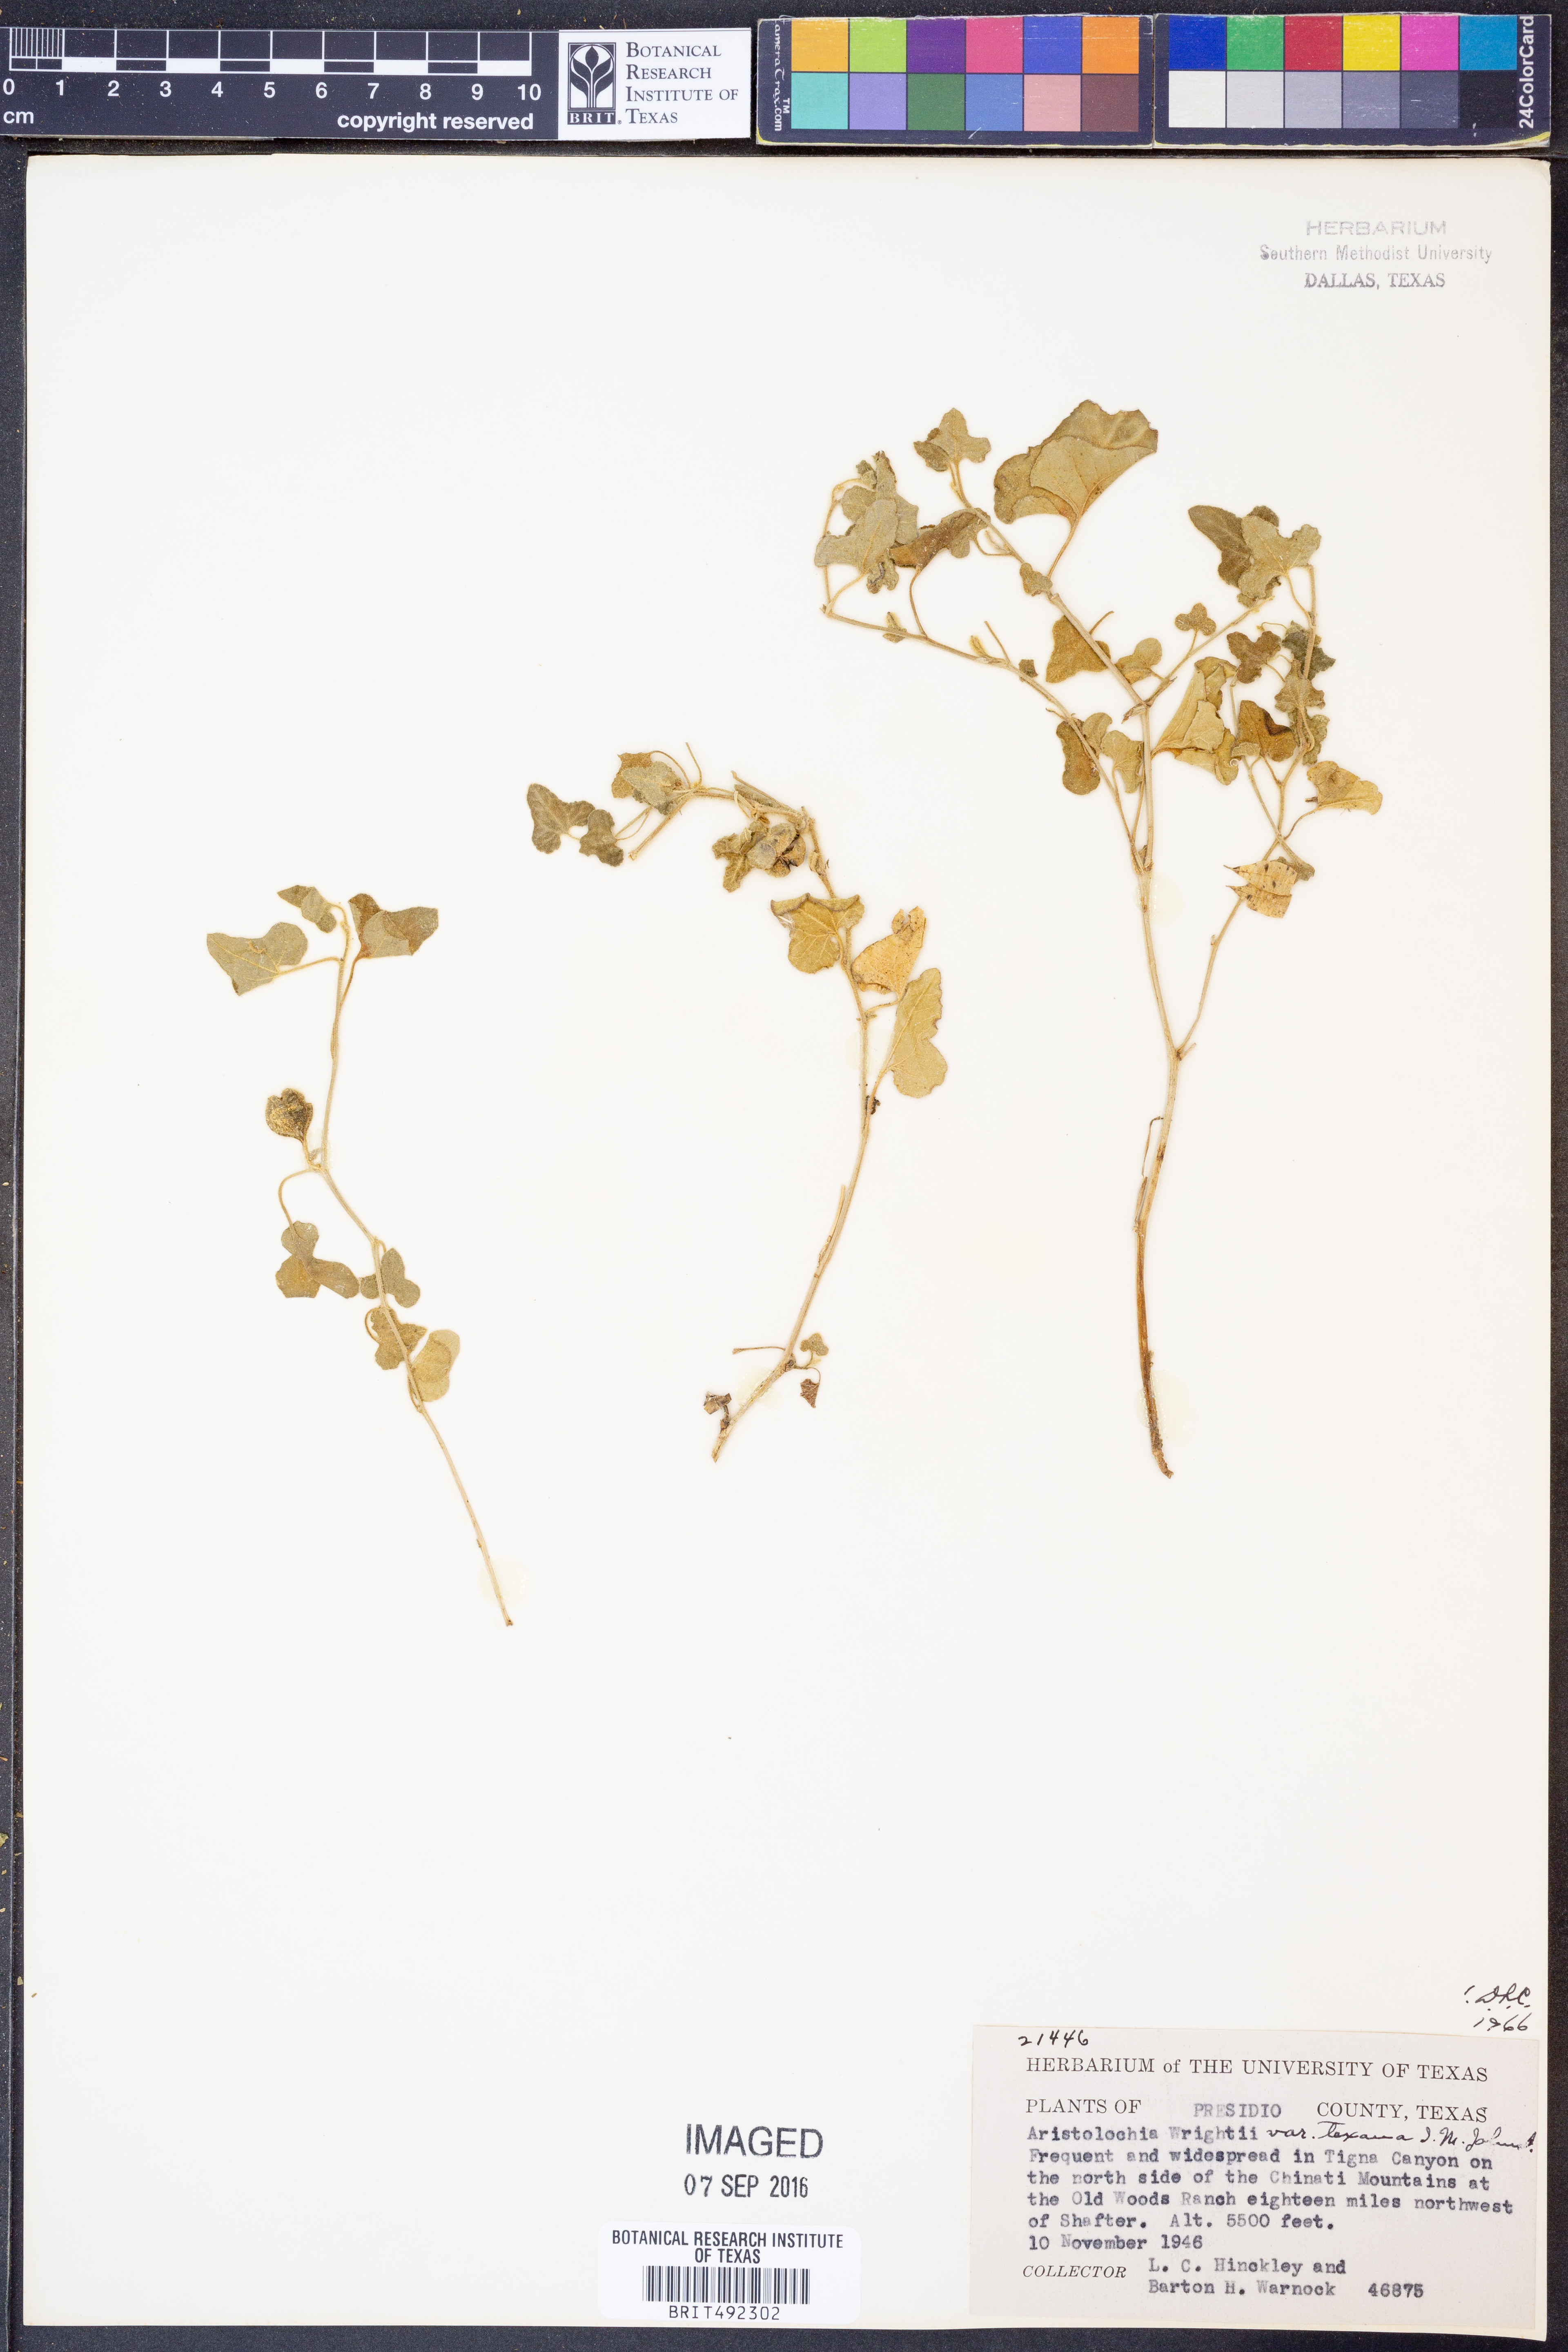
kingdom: Plantae
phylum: Tracheophyta
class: Magnoliopsida
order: Piperales
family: Aristolochiaceae
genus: Aristolochia
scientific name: Aristolochia wrightii
